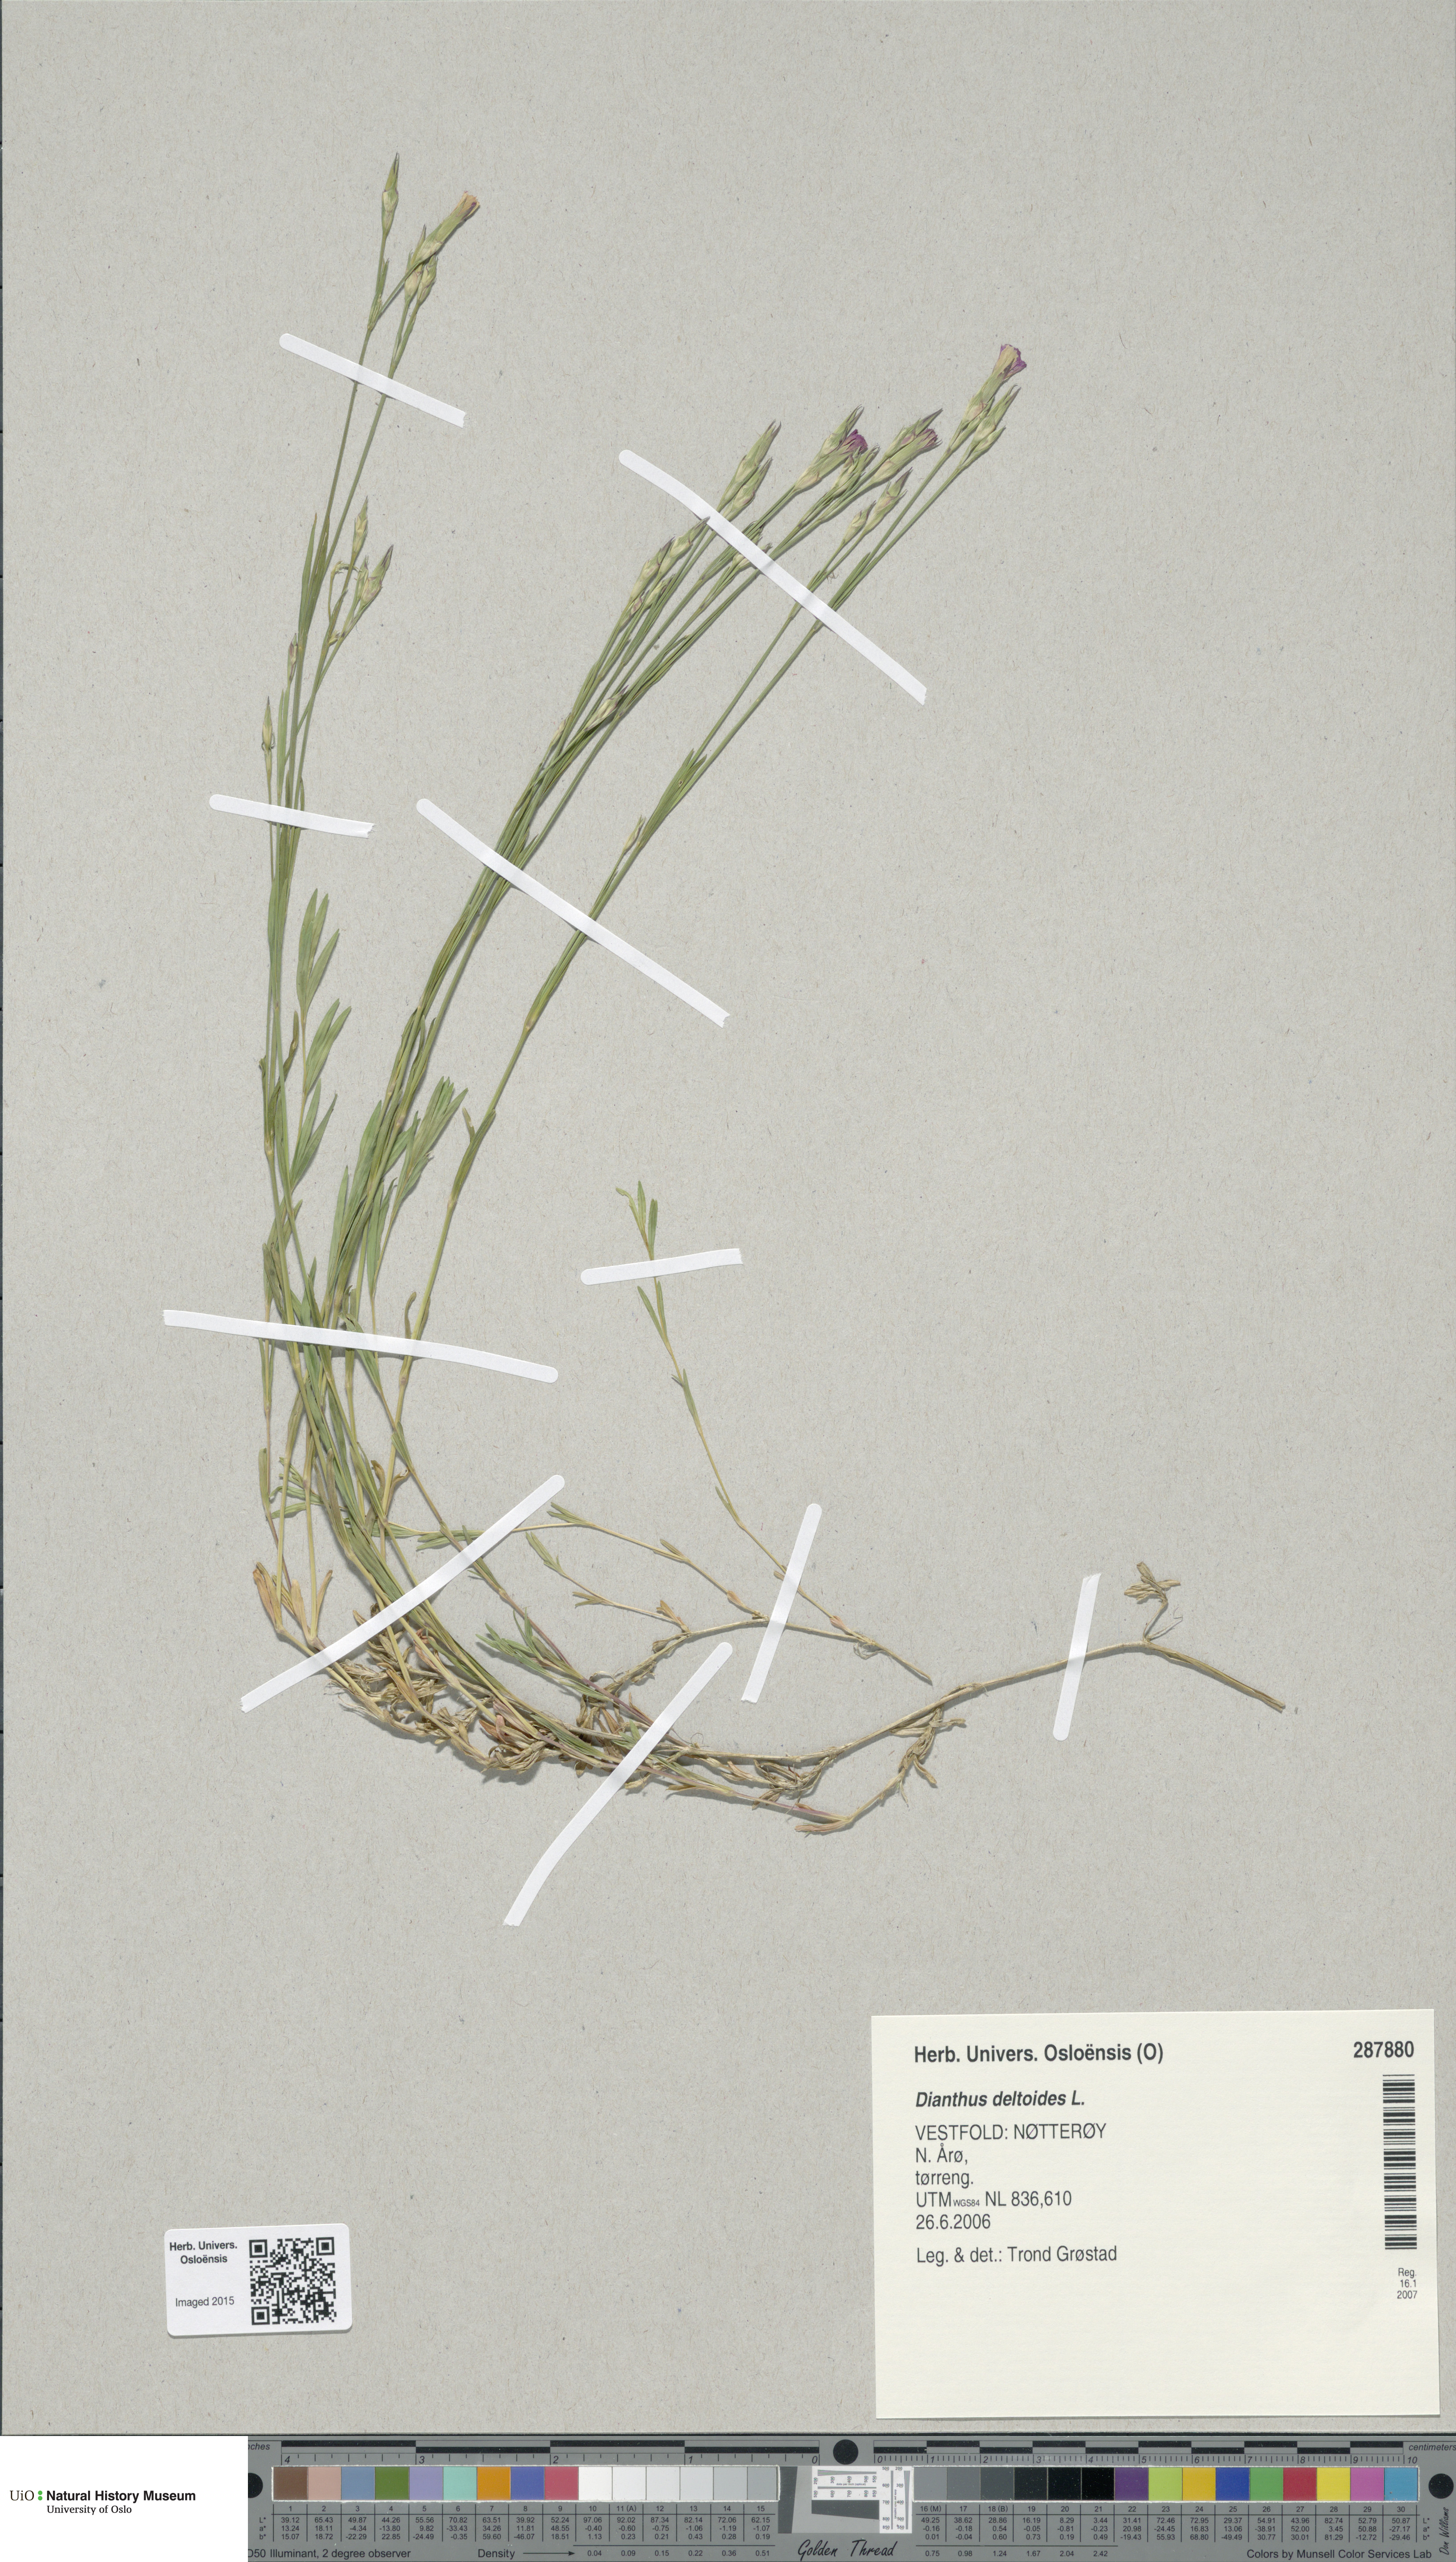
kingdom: Plantae
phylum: Tracheophyta
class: Magnoliopsida
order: Caryophyllales
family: Caryophyllaceae
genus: Dianthus
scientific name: Dianthus deltoides
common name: Maiden pink
